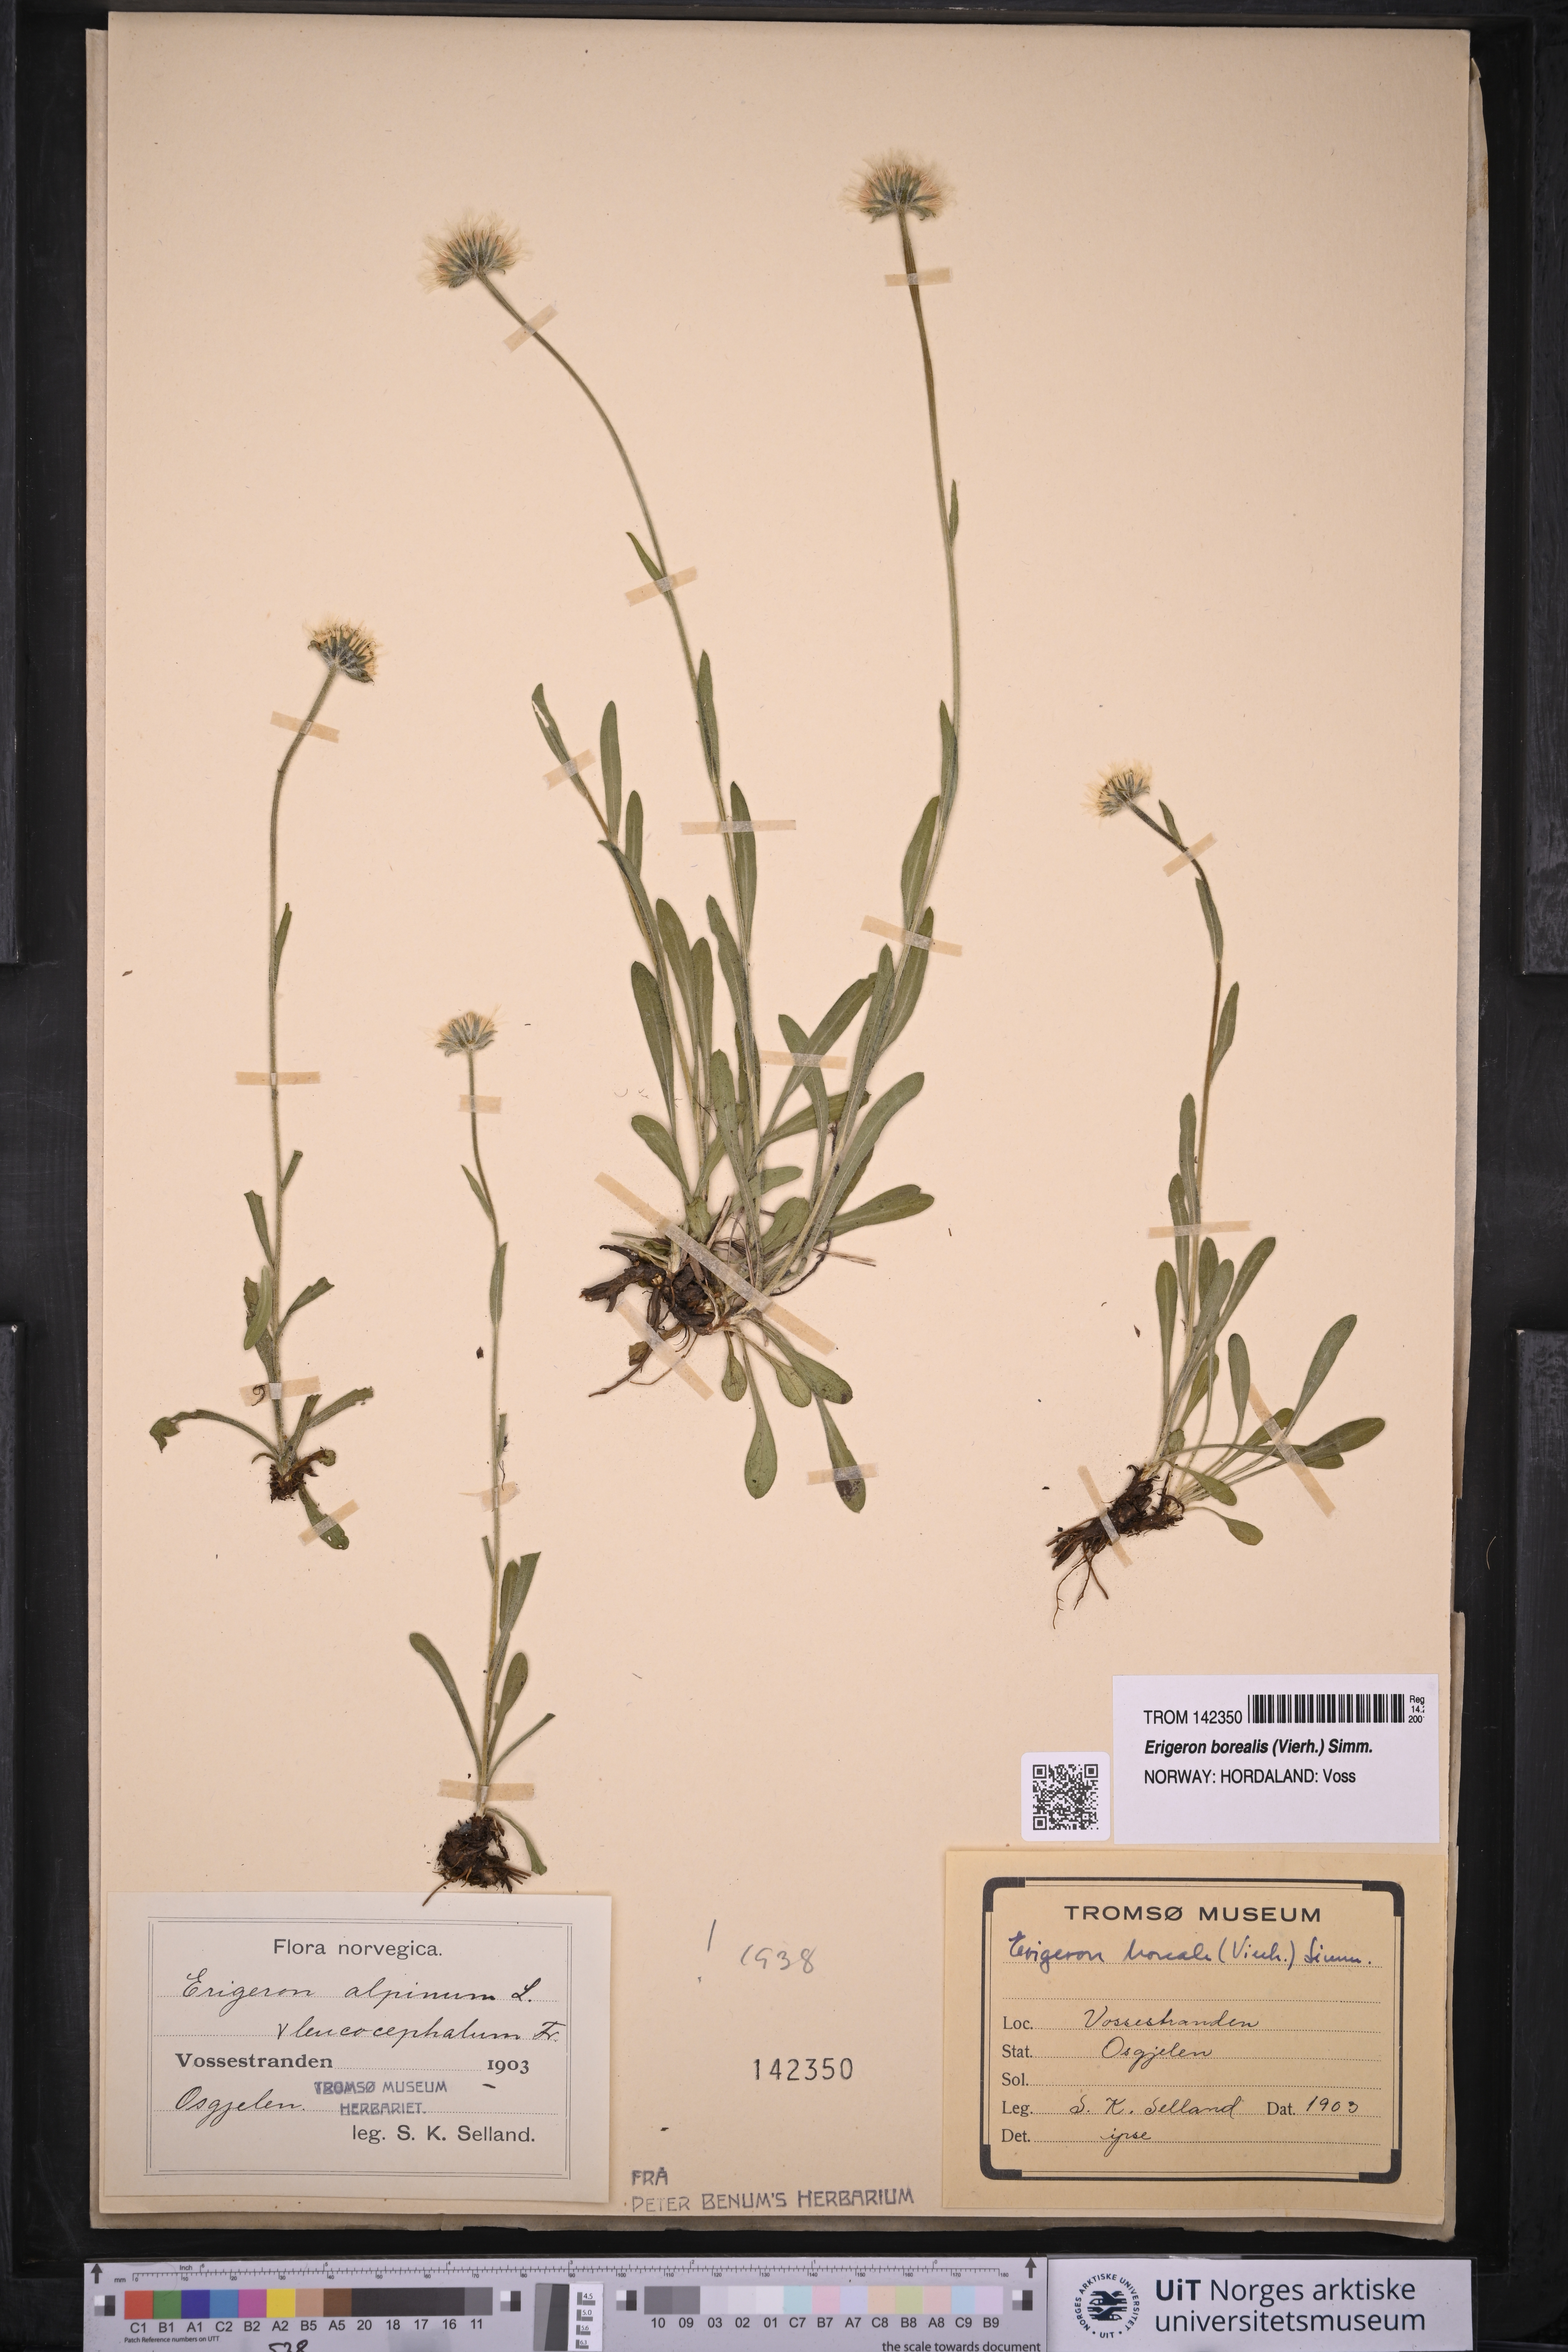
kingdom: Plantae
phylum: Tracheophyta
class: Magnoliopsida
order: Asterales
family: Asteraceae
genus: Erigeron
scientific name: Erigeron borealis
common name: Alpine fleabane
